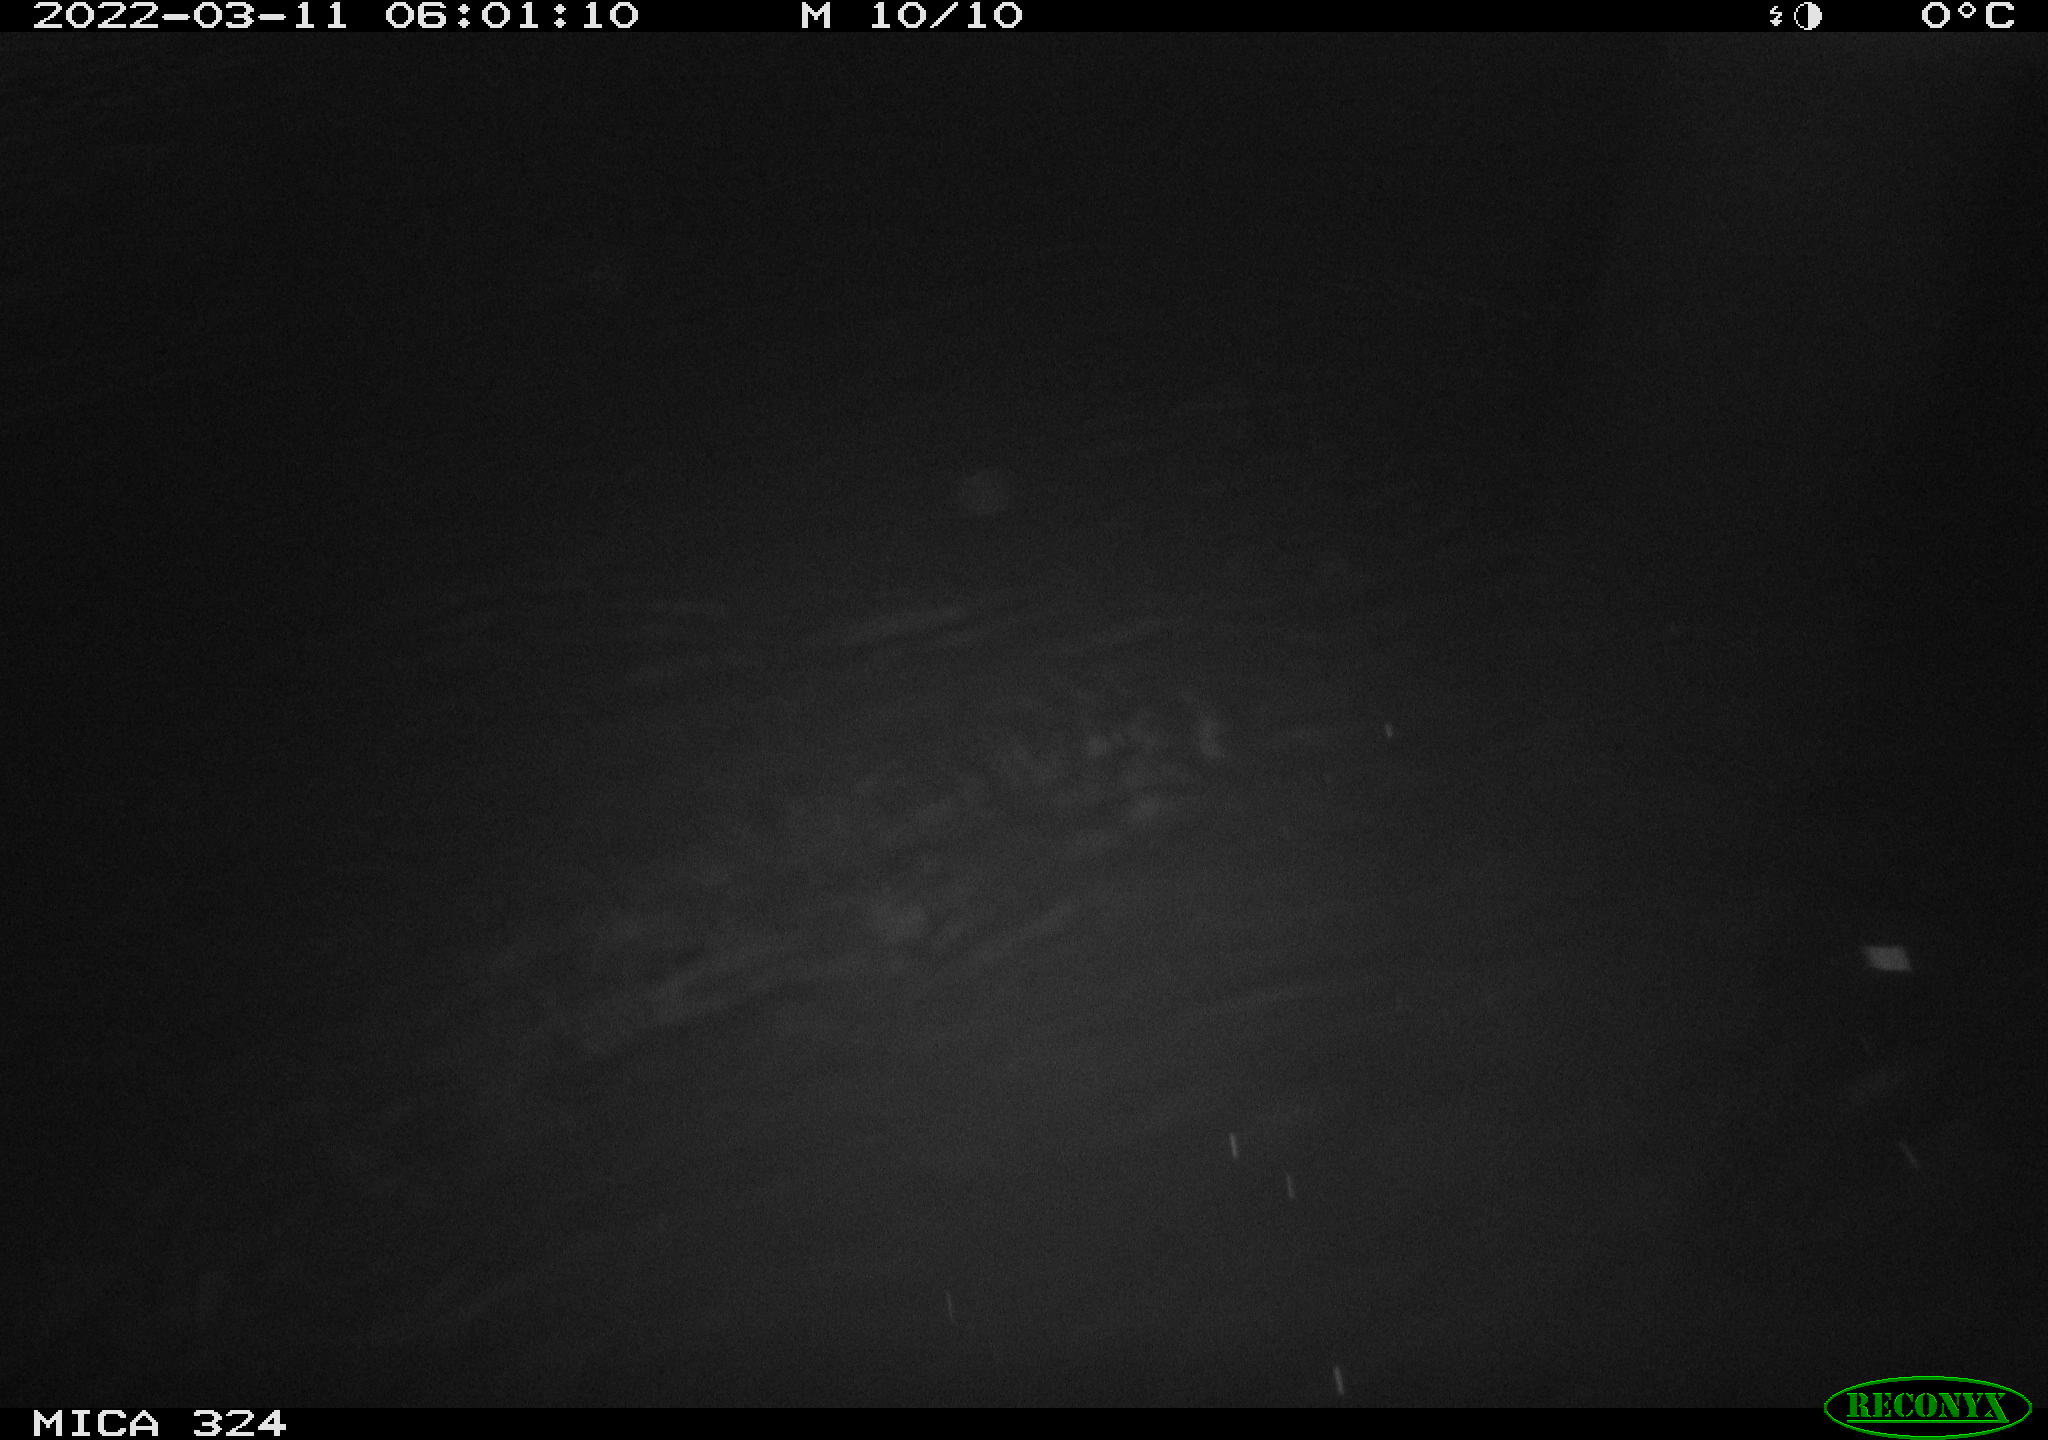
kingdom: Animalia
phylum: Chordata
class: Mammalia
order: Rodentia
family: Cricetidae
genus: Ondatra
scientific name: Ondatra zibethicus
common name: Muskrat
